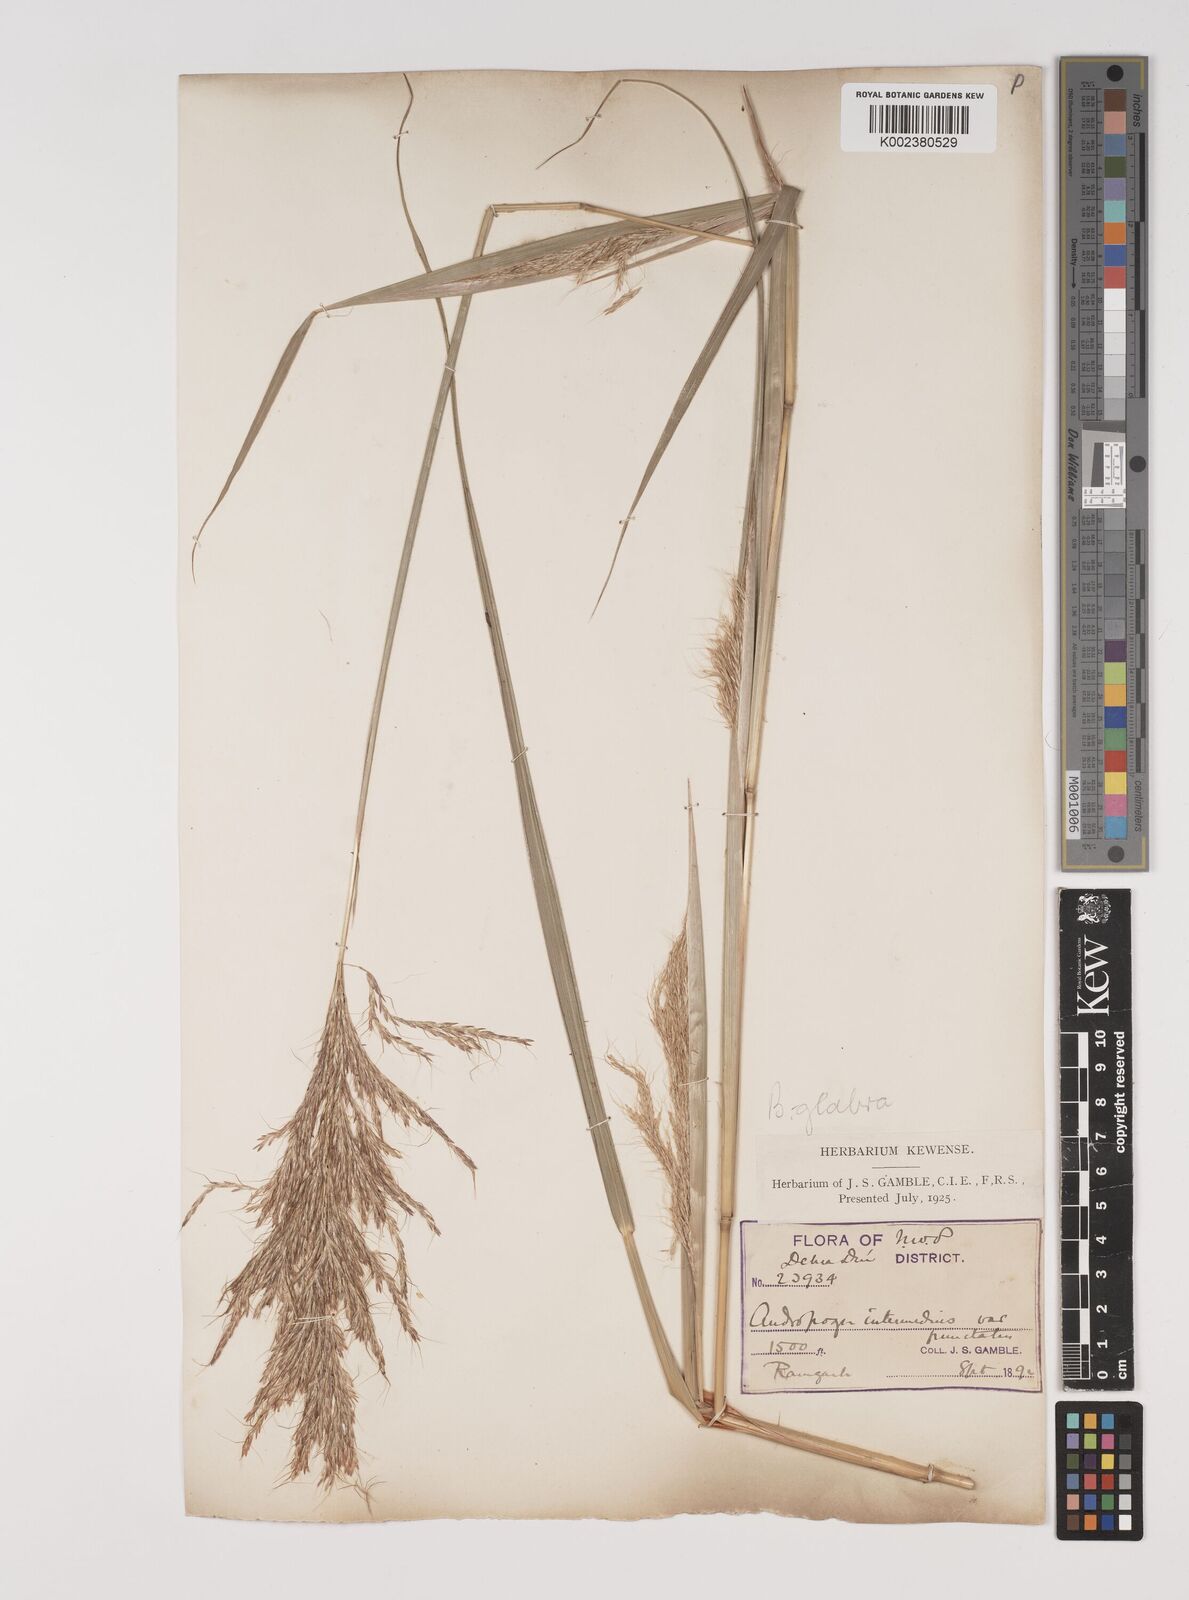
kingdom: Plantae
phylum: Tracheophyta
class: Liliopsida
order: Poales
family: Poaceae
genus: Bothriochloa
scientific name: Bothriochloa bladhii
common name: Caucasian bluestem
